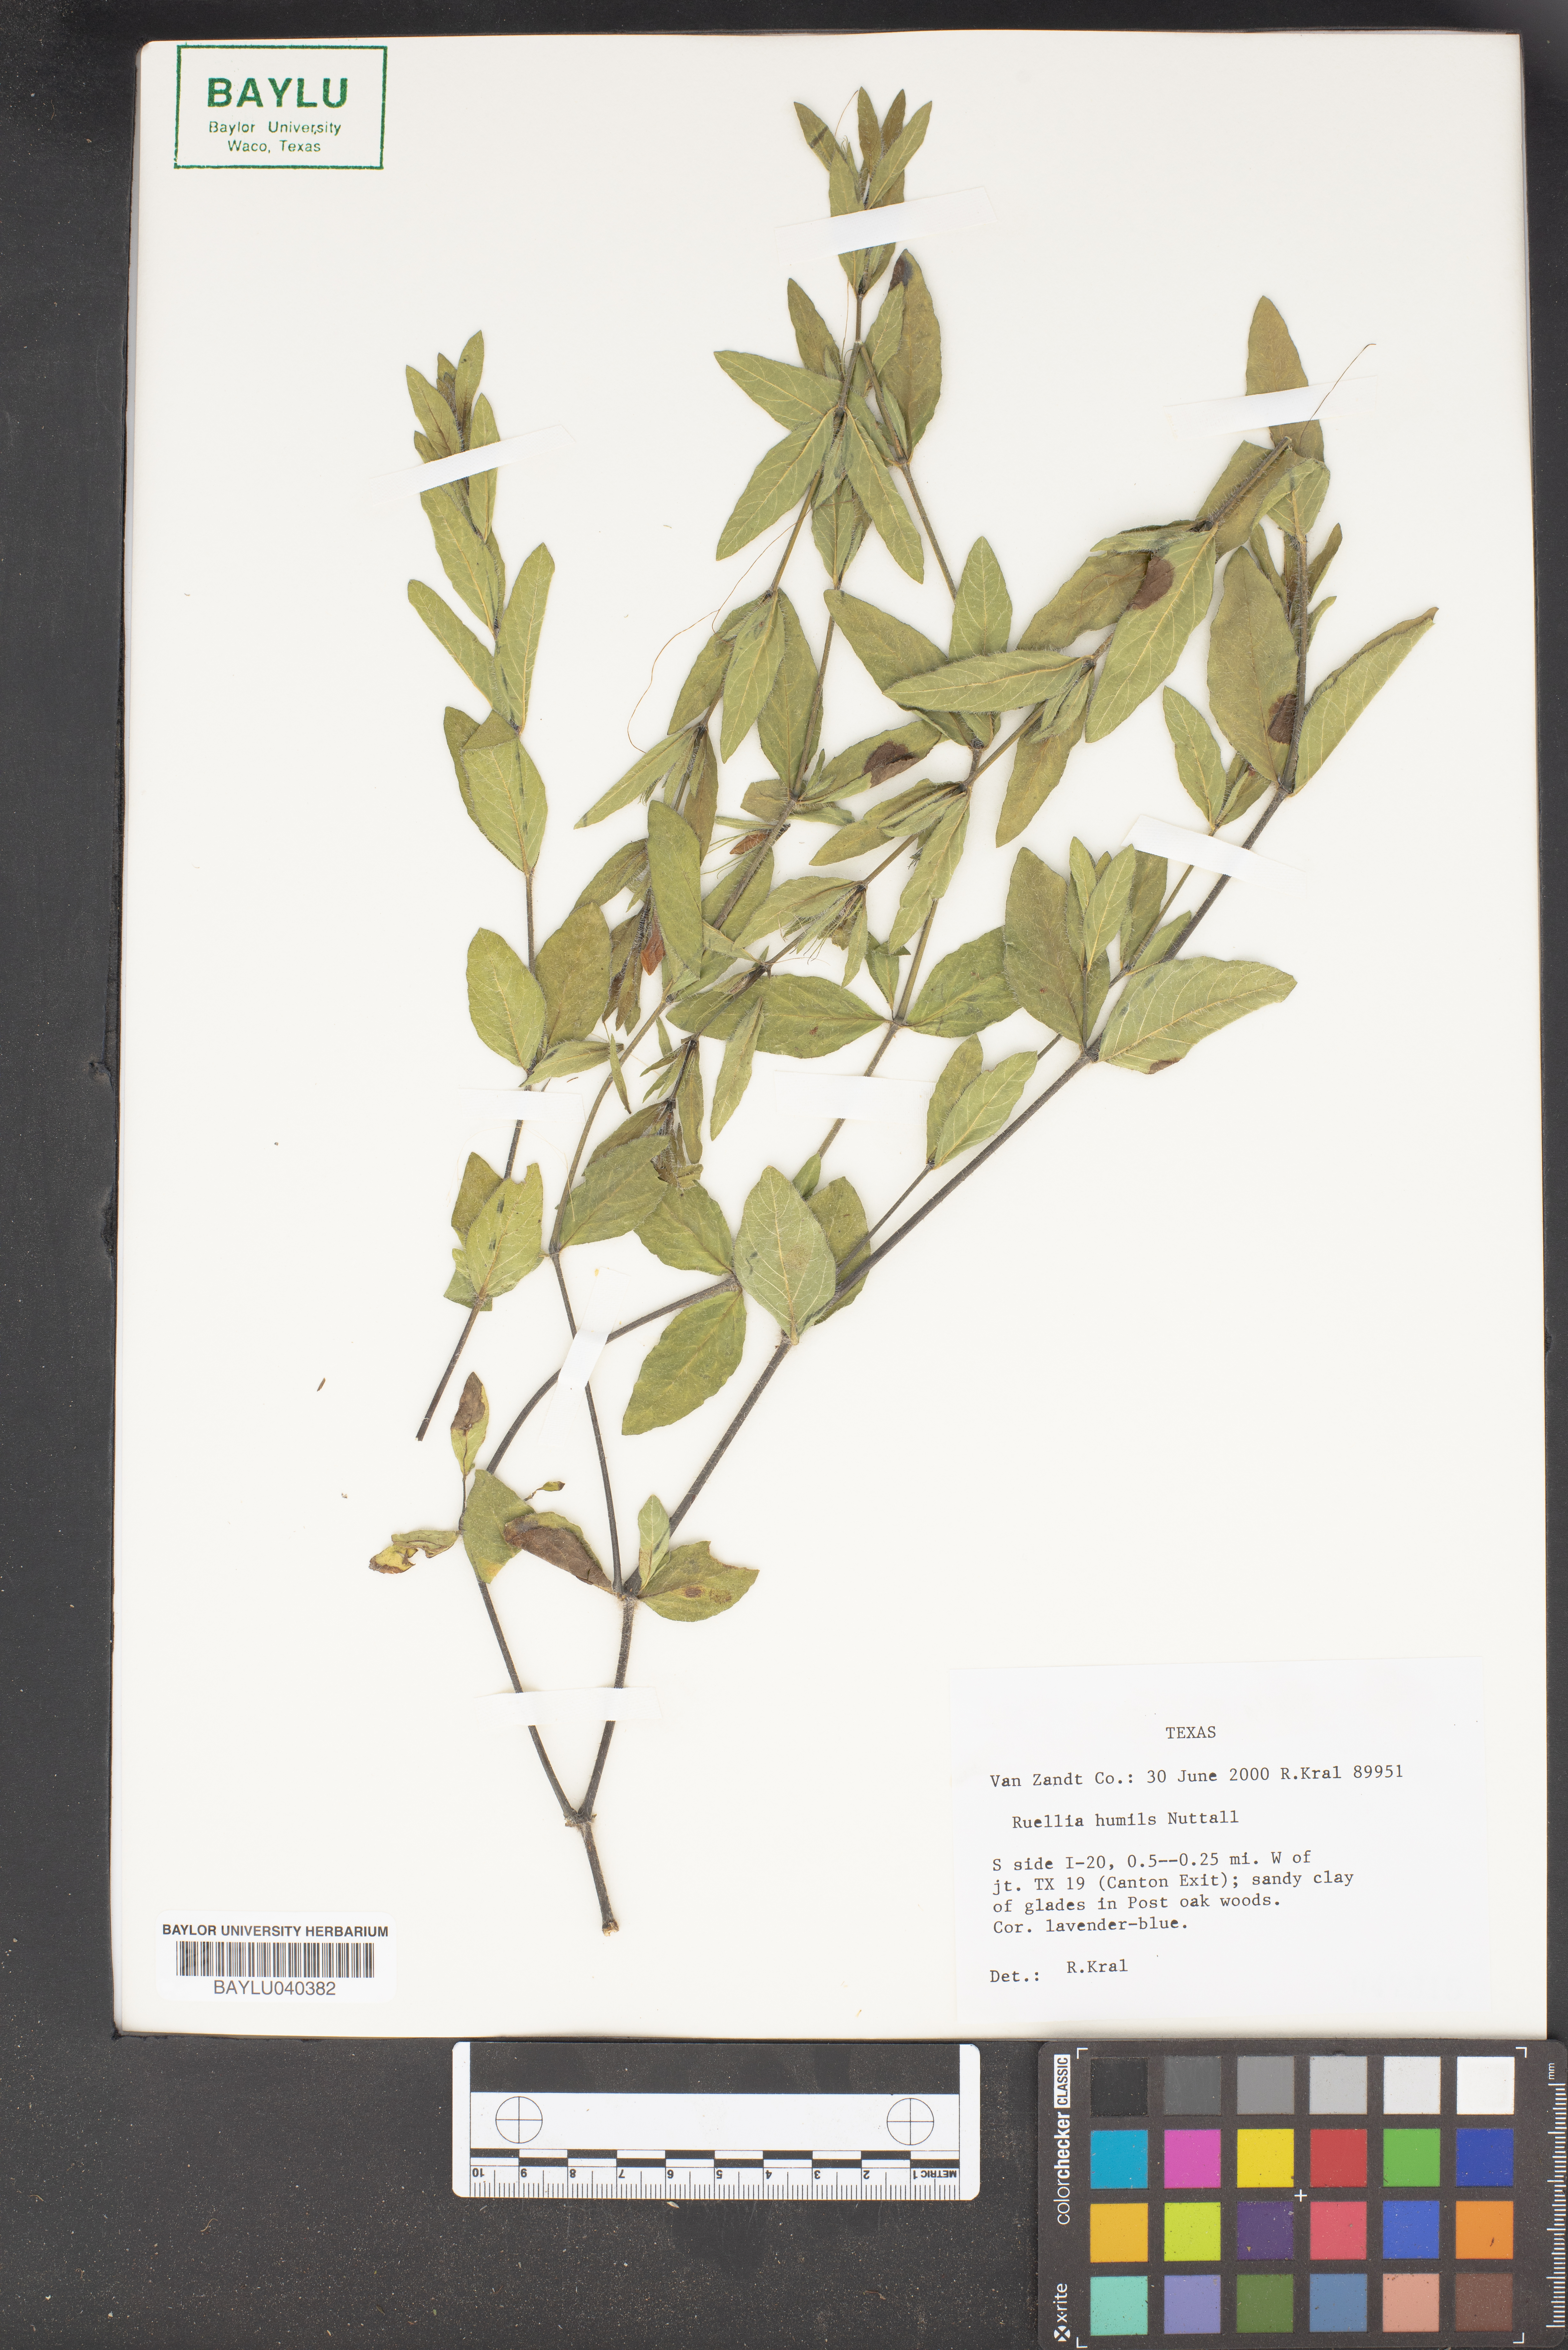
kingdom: Plantae
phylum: Tracheophyta
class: Magnoliopsida
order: Lamiales
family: Acanthaceae
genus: Ruellia
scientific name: Ruellia humilis
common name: Fringe-leaf ruellia
